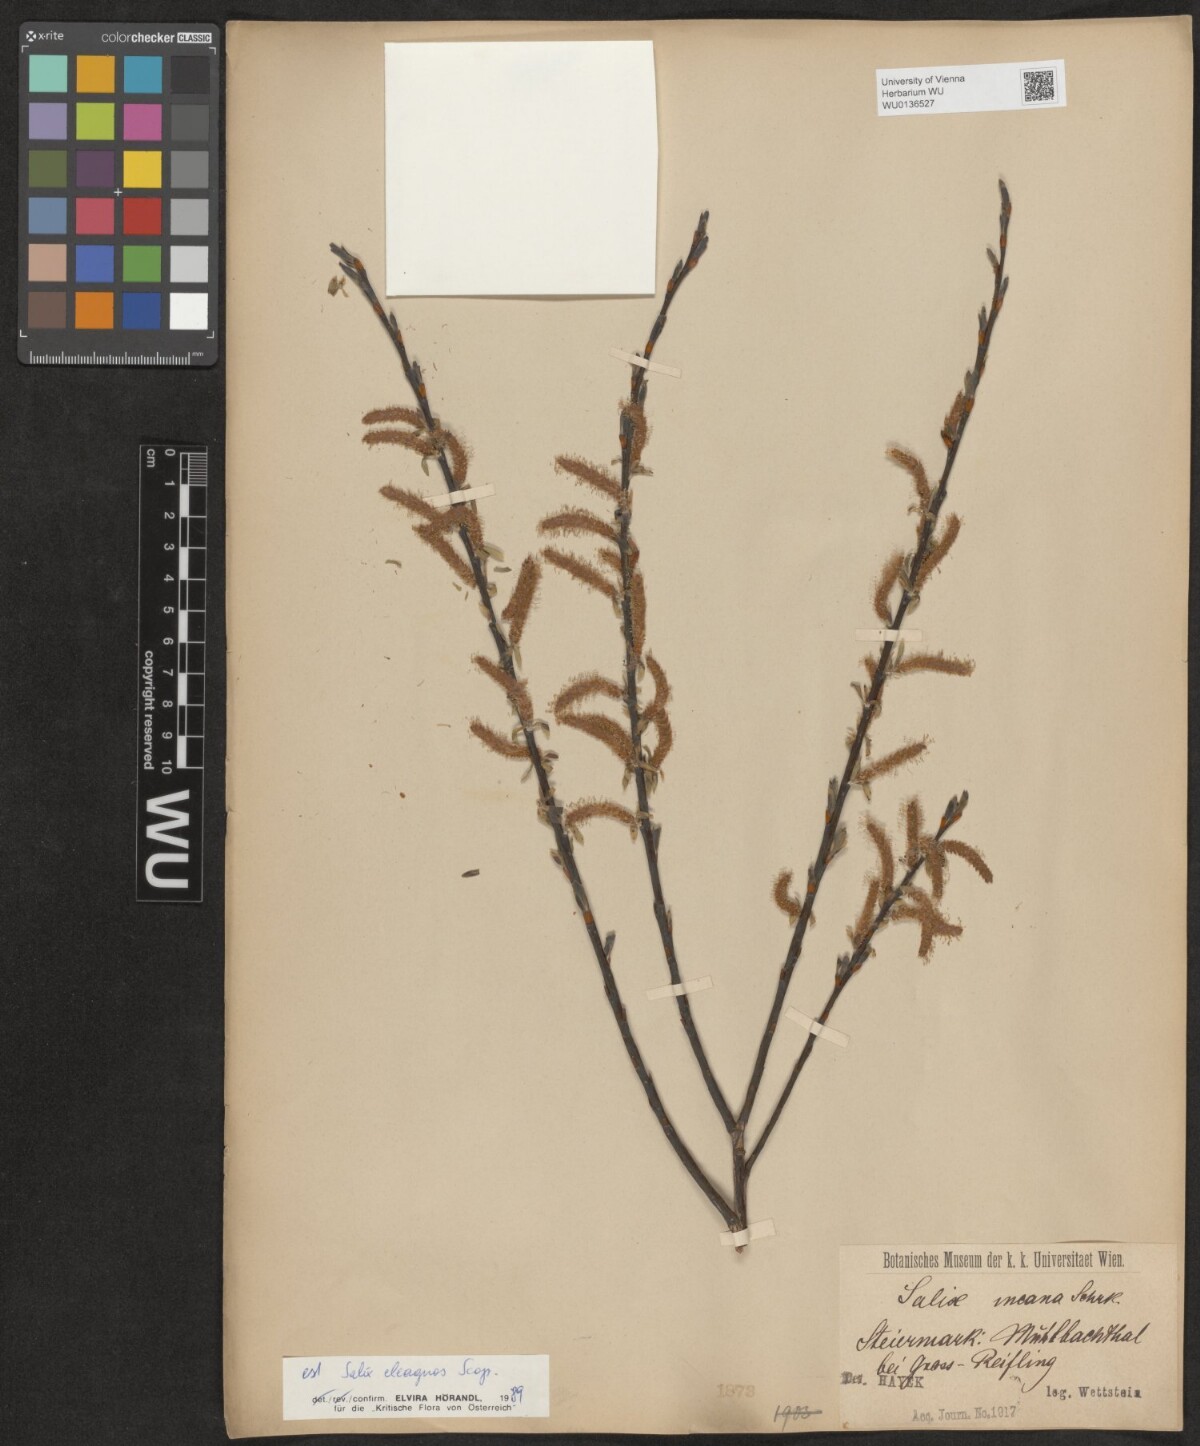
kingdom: Plantae
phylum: Tracheophyta
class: Magnoliopsida
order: Malpighiales
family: Salicaceae
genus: Salix
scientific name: Salix eleagnos
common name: Elaeagnus willow
